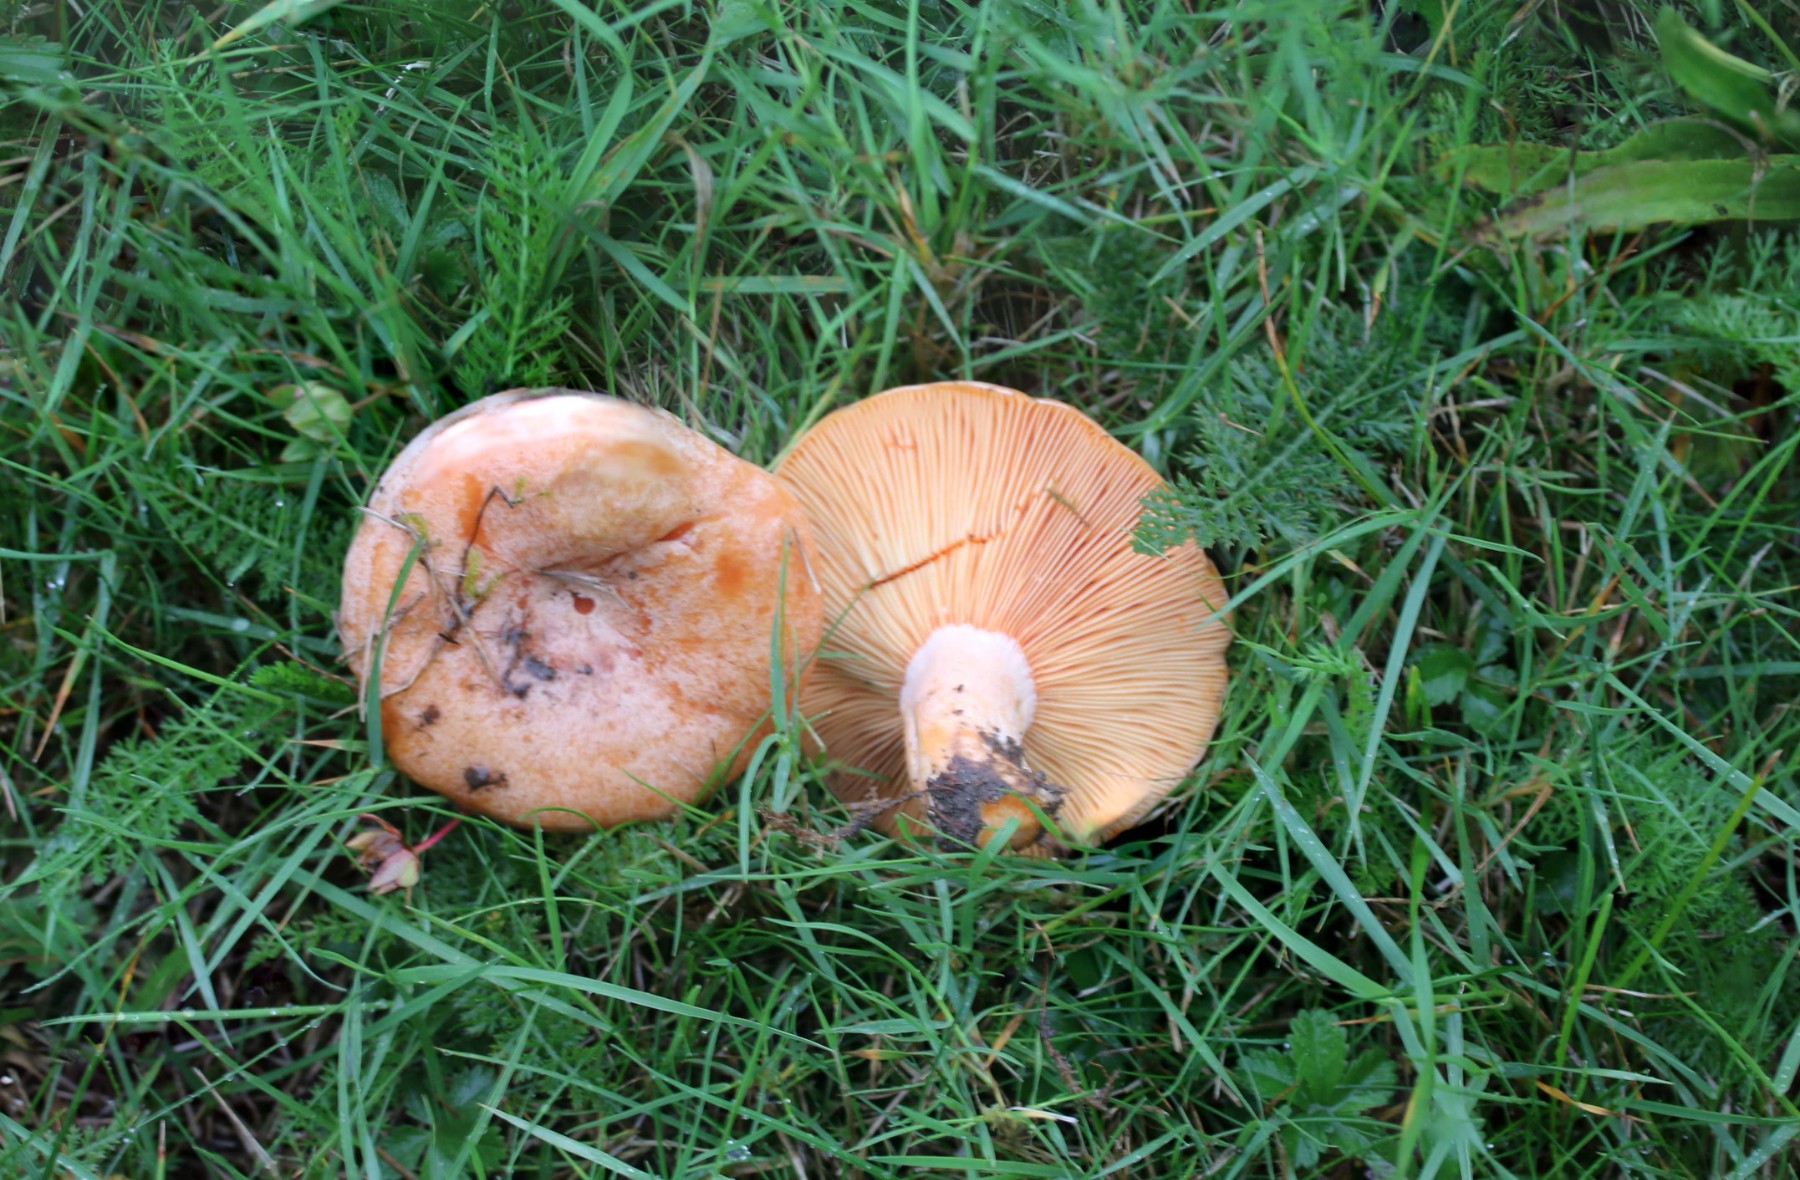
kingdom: Fungi
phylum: Basidiomycota
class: Agaricomycetes
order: Russulales
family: Russulaceae
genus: Lactarius
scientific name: Lactarius deliciosus
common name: velsmagende mælkehat
